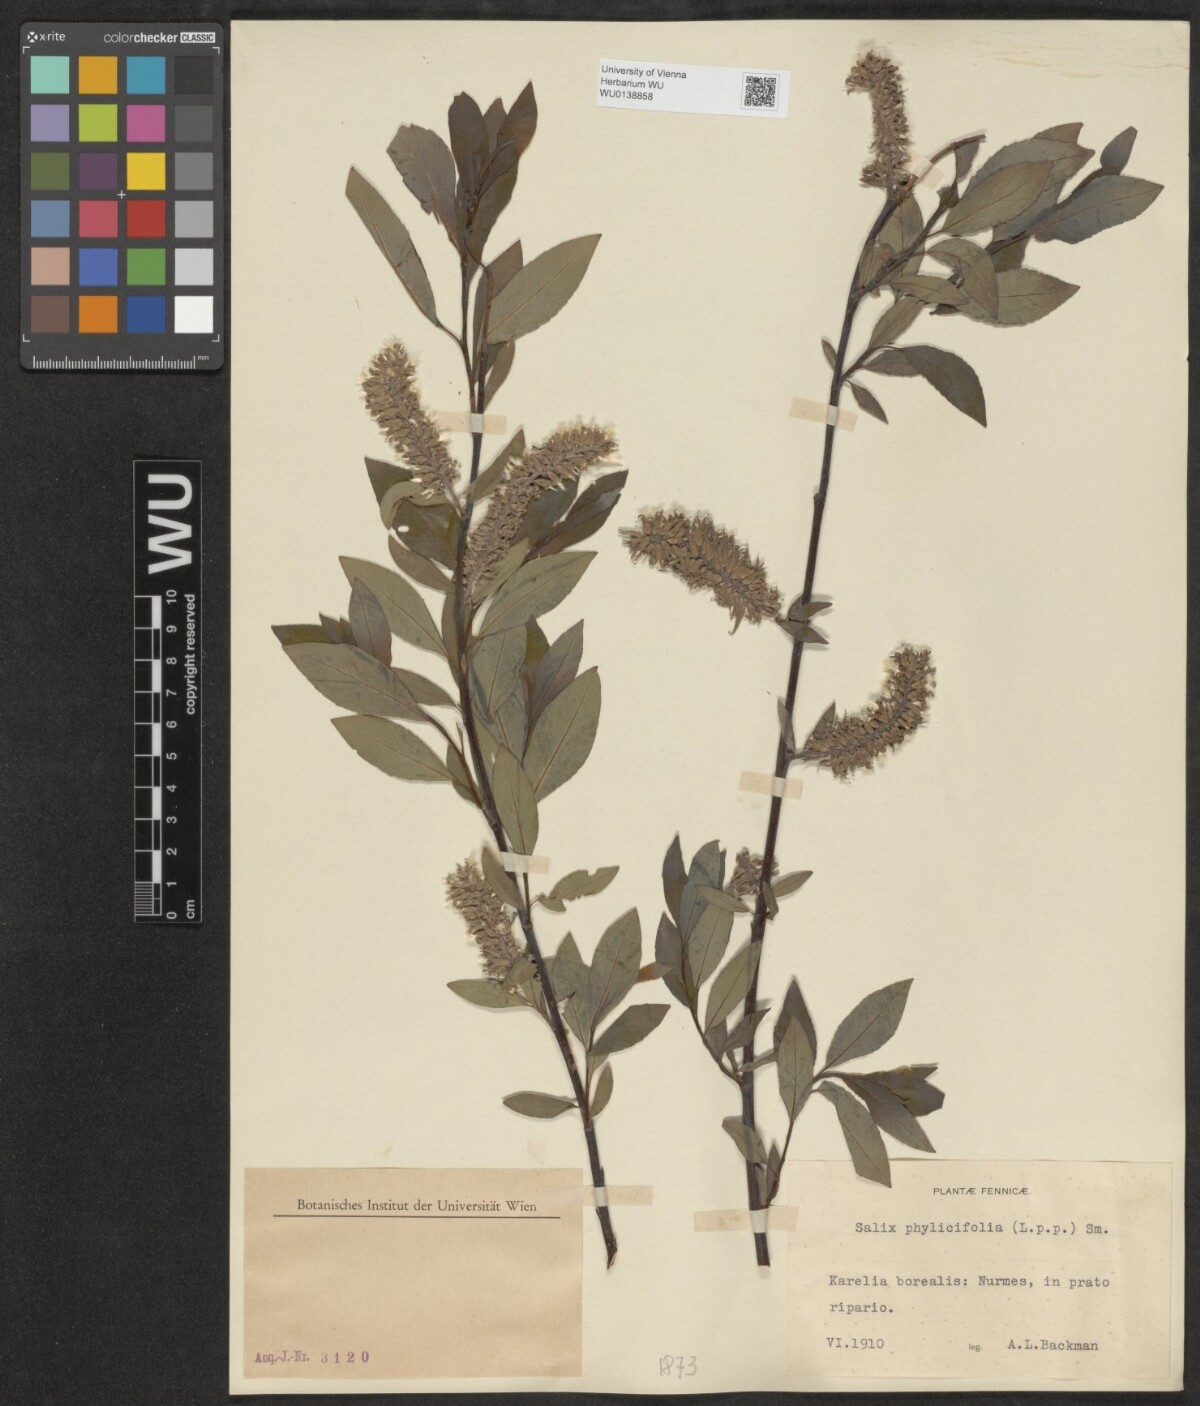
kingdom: Plantae
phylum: Tracheophyta
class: Magnoliopsida
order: Malpighiales
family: Salicaceae
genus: Salix
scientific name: Salix phylicifolia
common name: Tea-leaved willow
